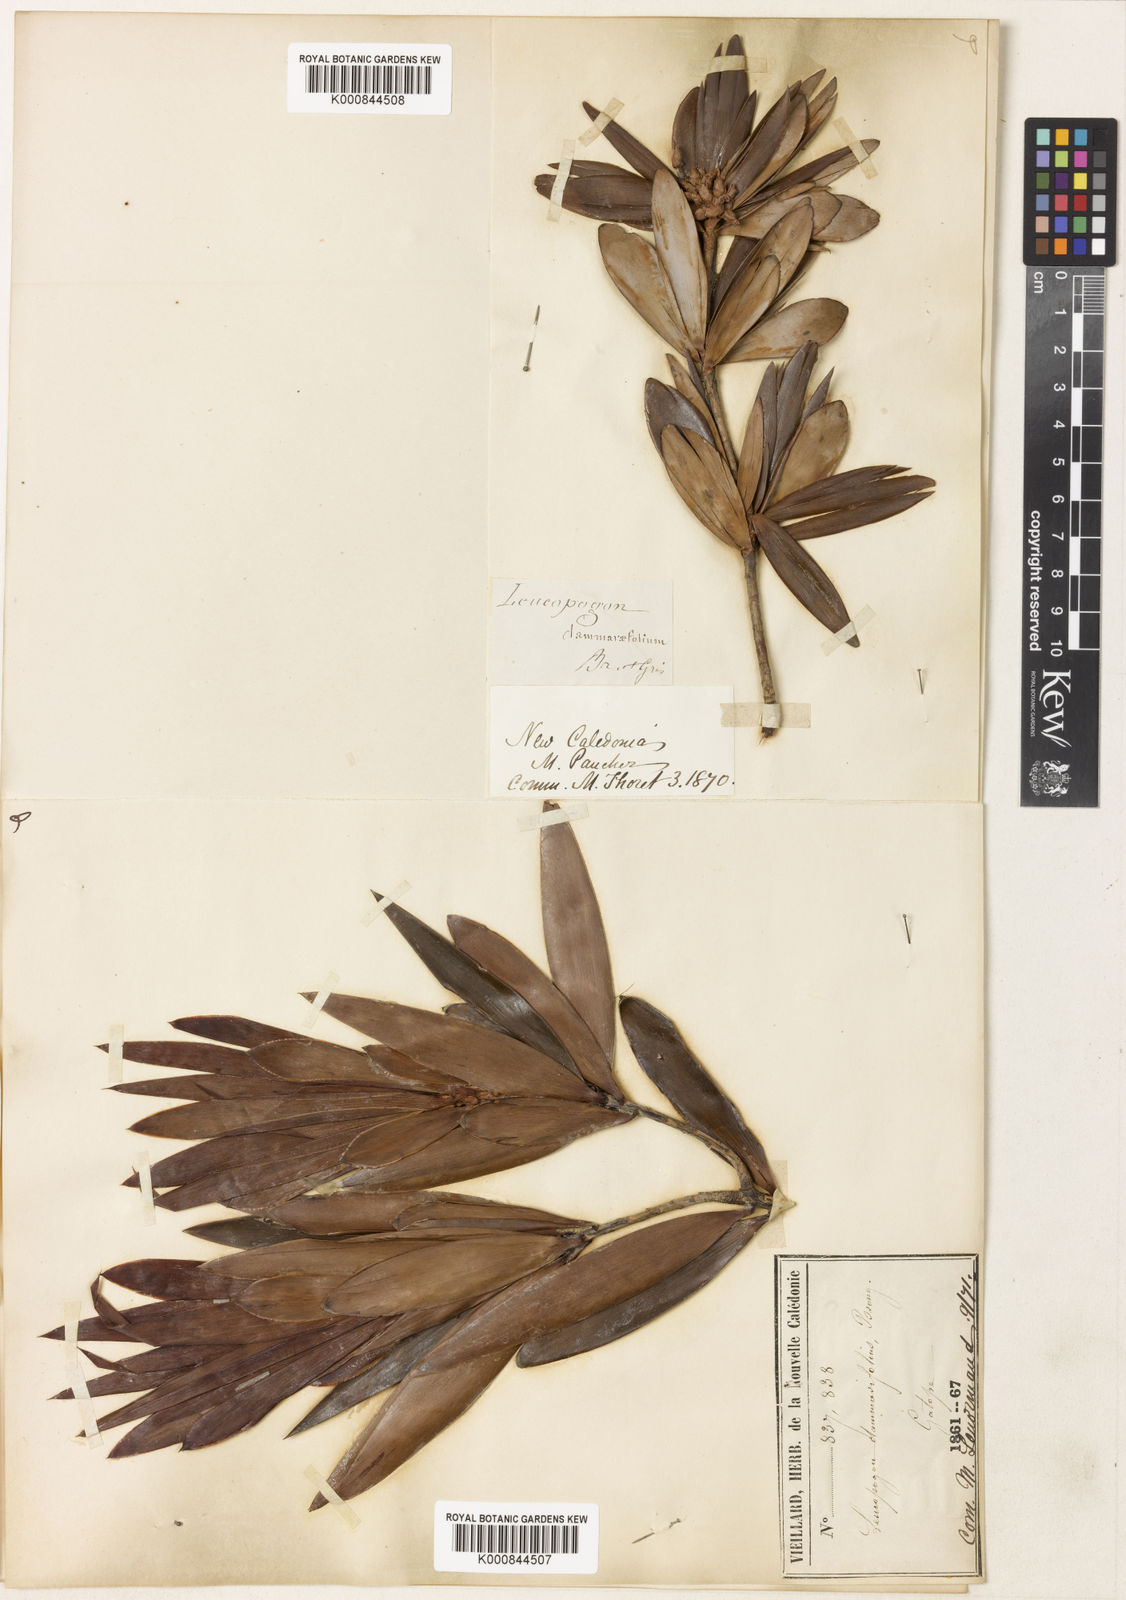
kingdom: Plantae
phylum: Tracheophyta
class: Magnoliopsida
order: Ericales
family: Ericaceae
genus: Styphelia
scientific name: Styphelia dammarifolia
